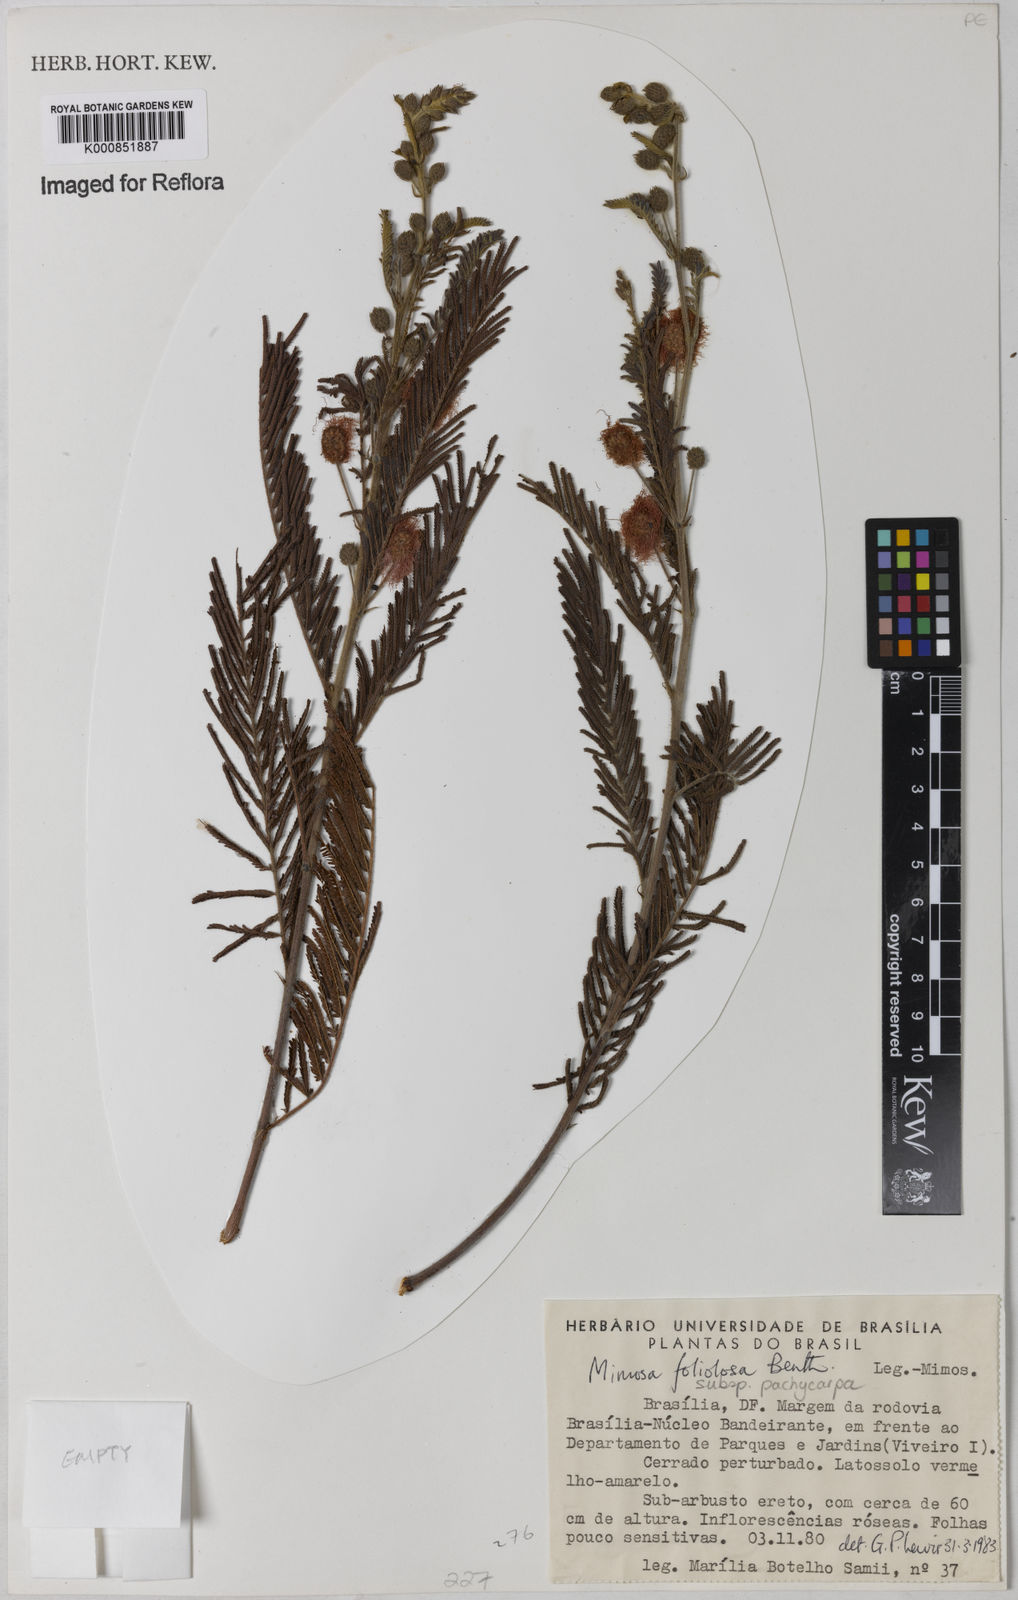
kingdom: Plantae
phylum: Tracheophyta
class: Magnoliopsida
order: Fabales
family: Fabaceae
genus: Mimosa
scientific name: Mimosa foliolosa
